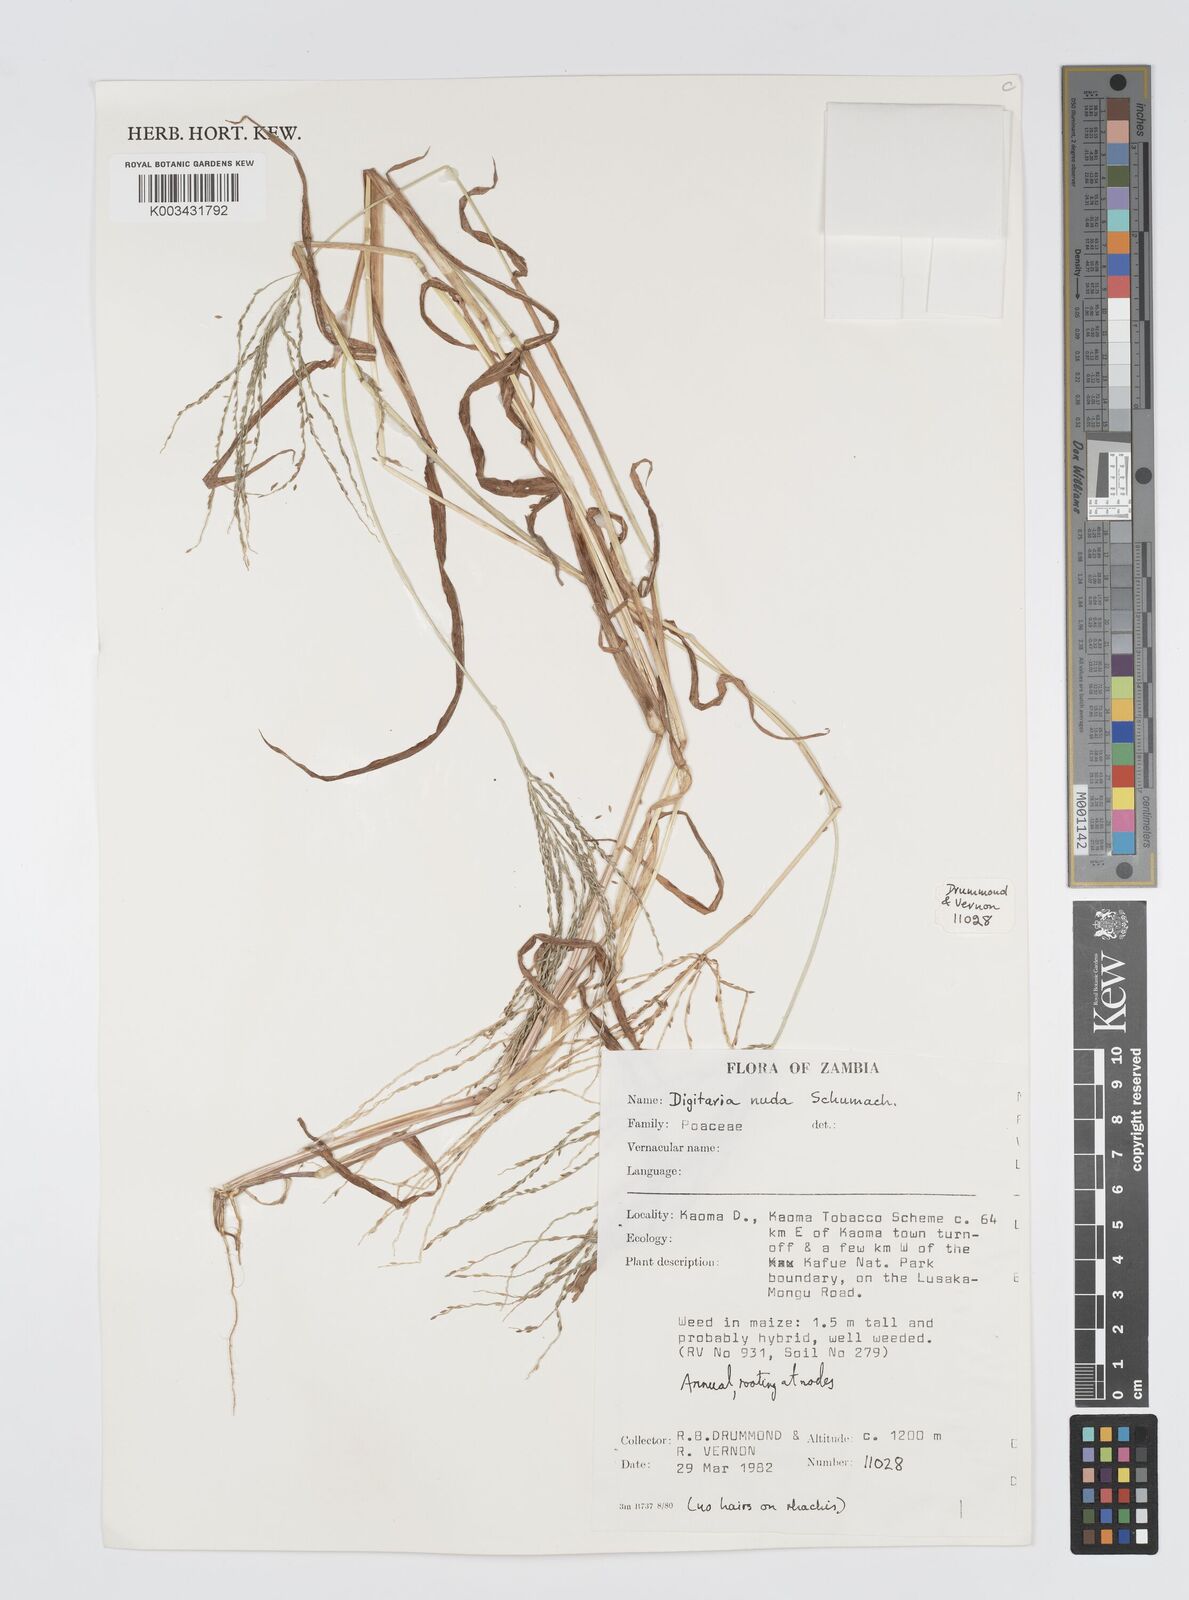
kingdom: Plantae
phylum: Tracheophyta
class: Liliopsida
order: Poales
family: Poaceae
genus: Digitaria
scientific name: Digitaria nuda
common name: Naked crabgrass
